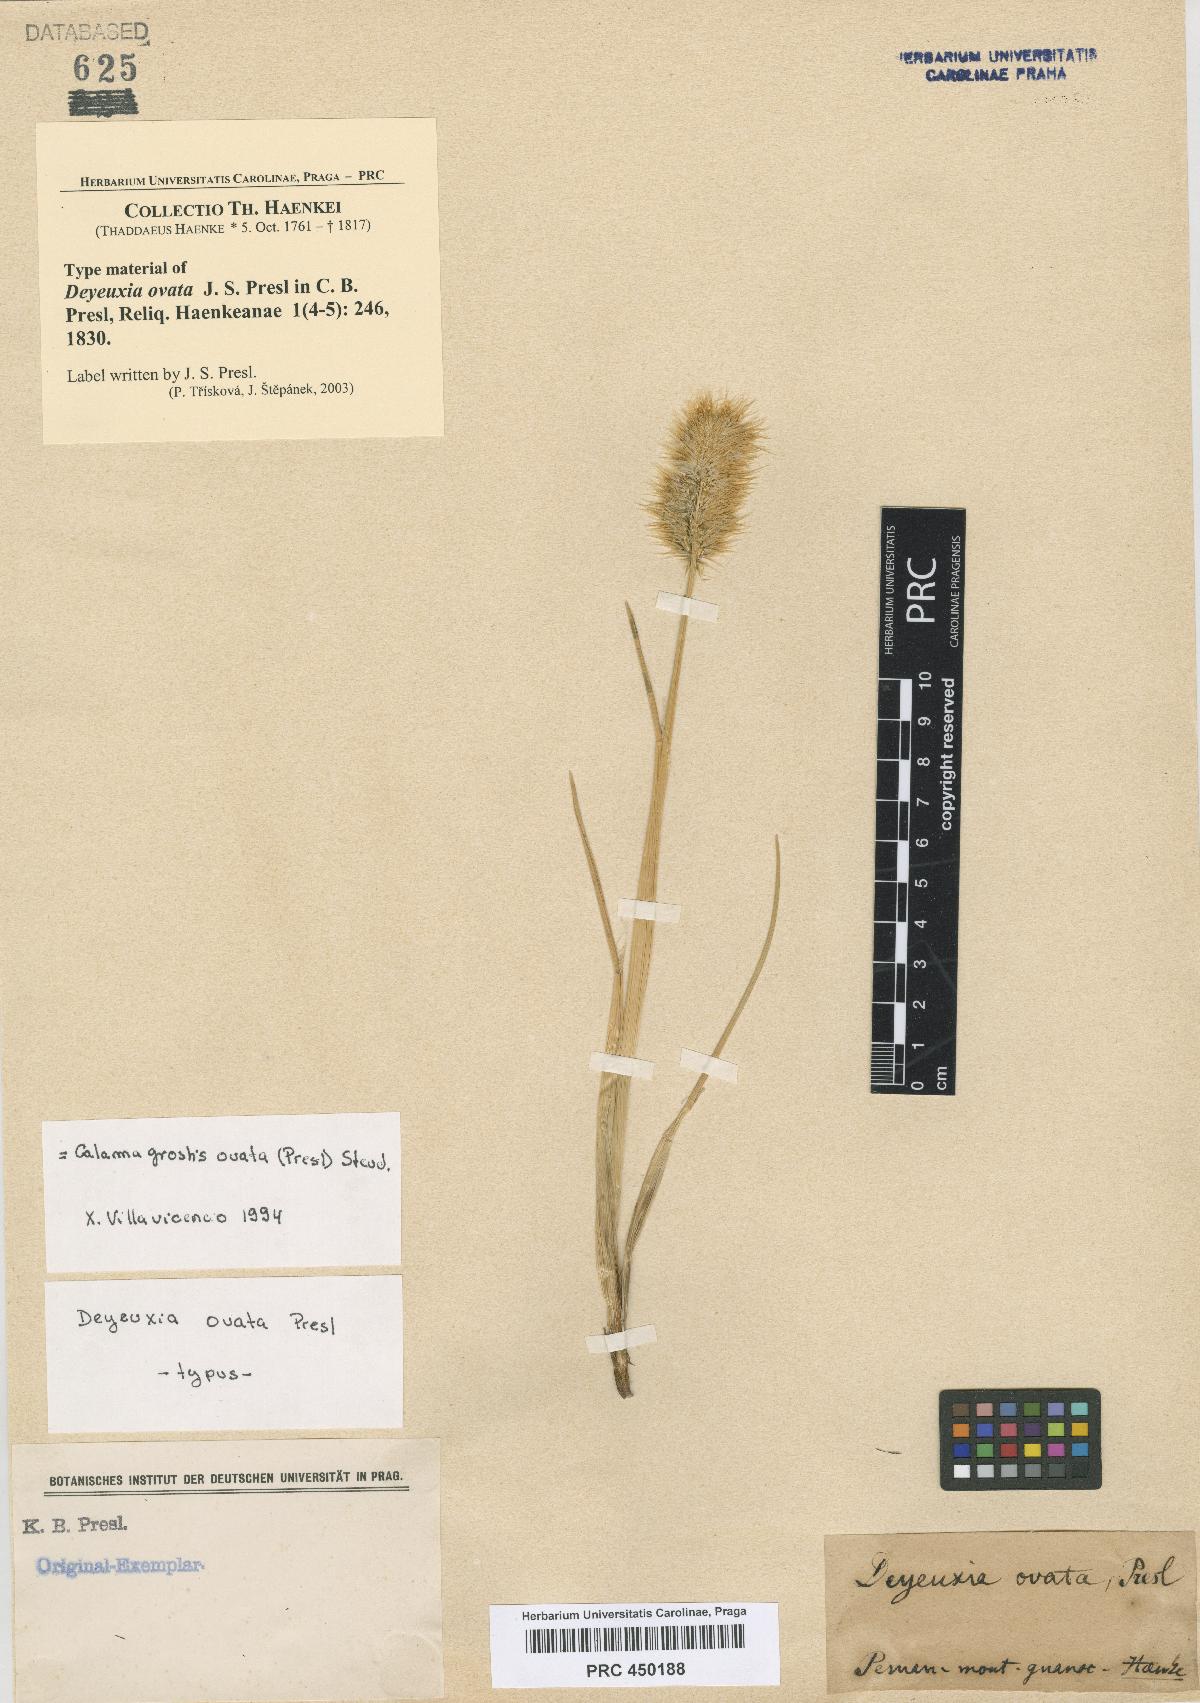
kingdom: Plantae
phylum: Tracheophyta
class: Liliopsida
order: Poales
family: Poaceae
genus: Deschampsia
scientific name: Deschampsia ovata
